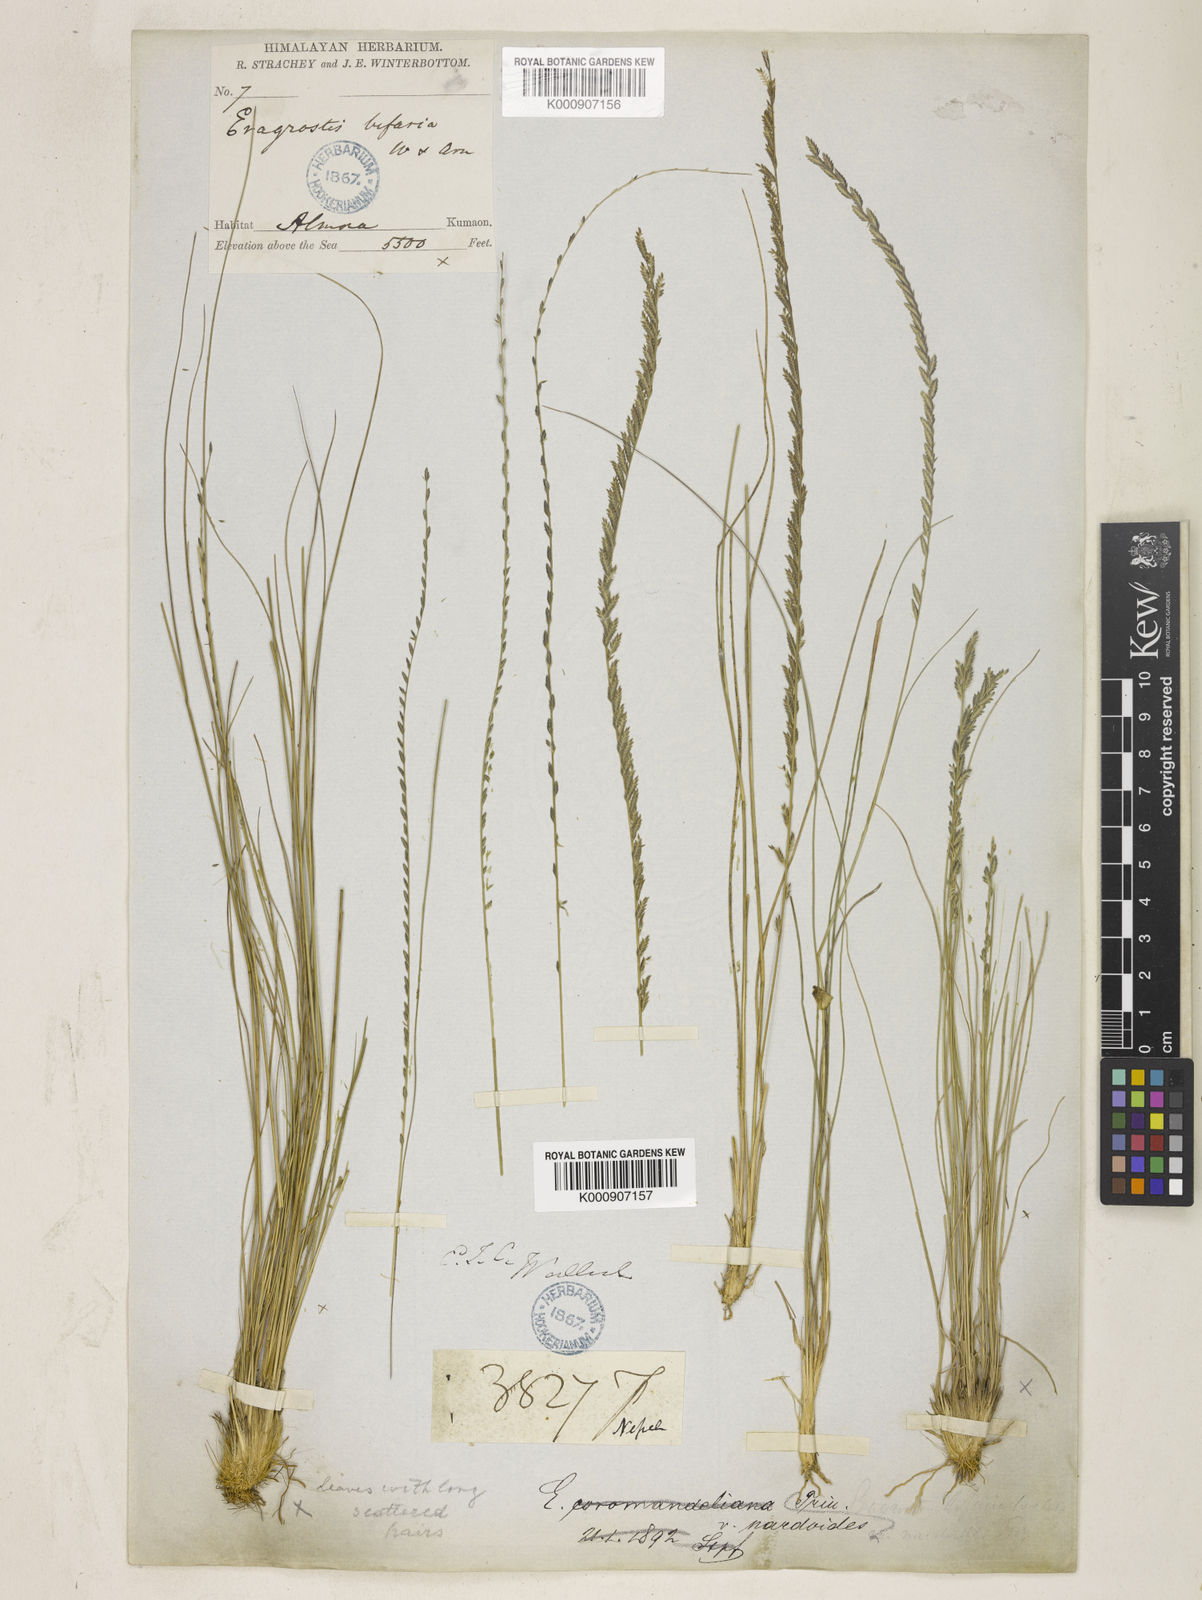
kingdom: Plantae
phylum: Tracheophyta
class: Liliopsida
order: Poales
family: Poaceae
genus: Eragrostiella
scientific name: Eragrostiella nardoides
